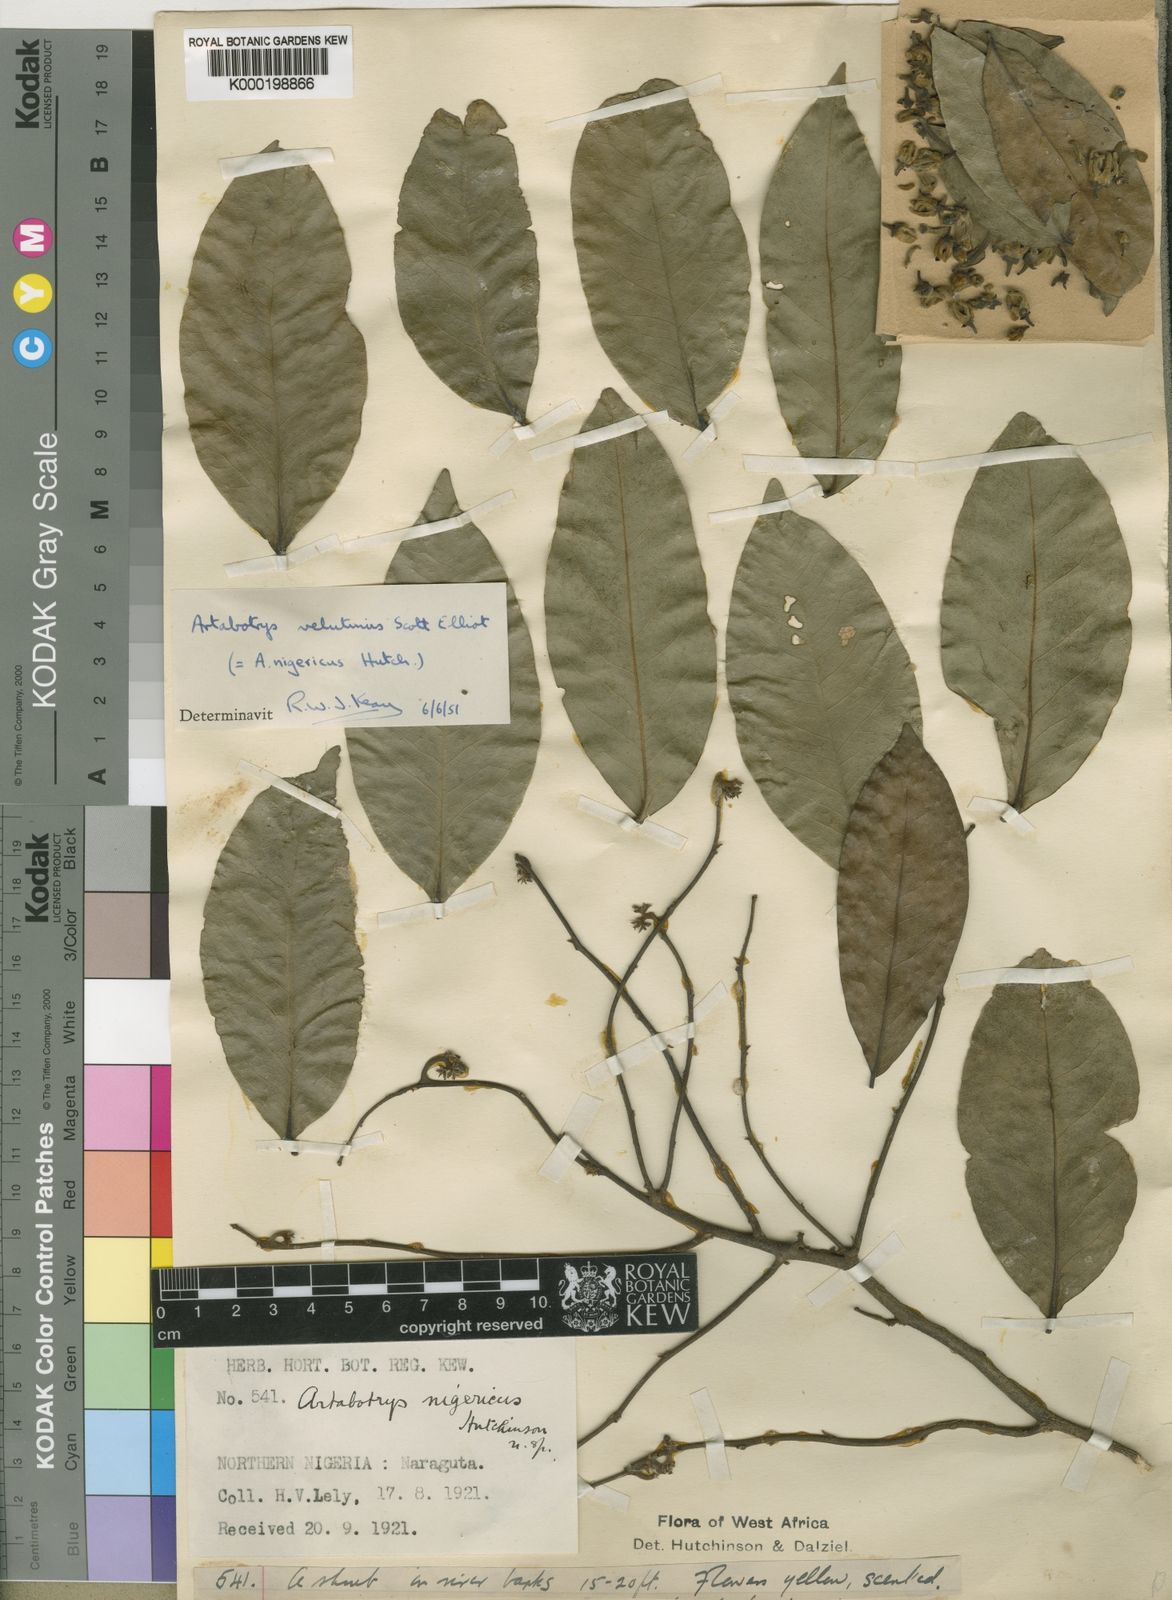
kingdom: Plantae
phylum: Tracheophyta
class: Magnoliopsida
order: Magnoliales
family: Annonaceae
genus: Artabotrys
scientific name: Artabotrys velutinus
